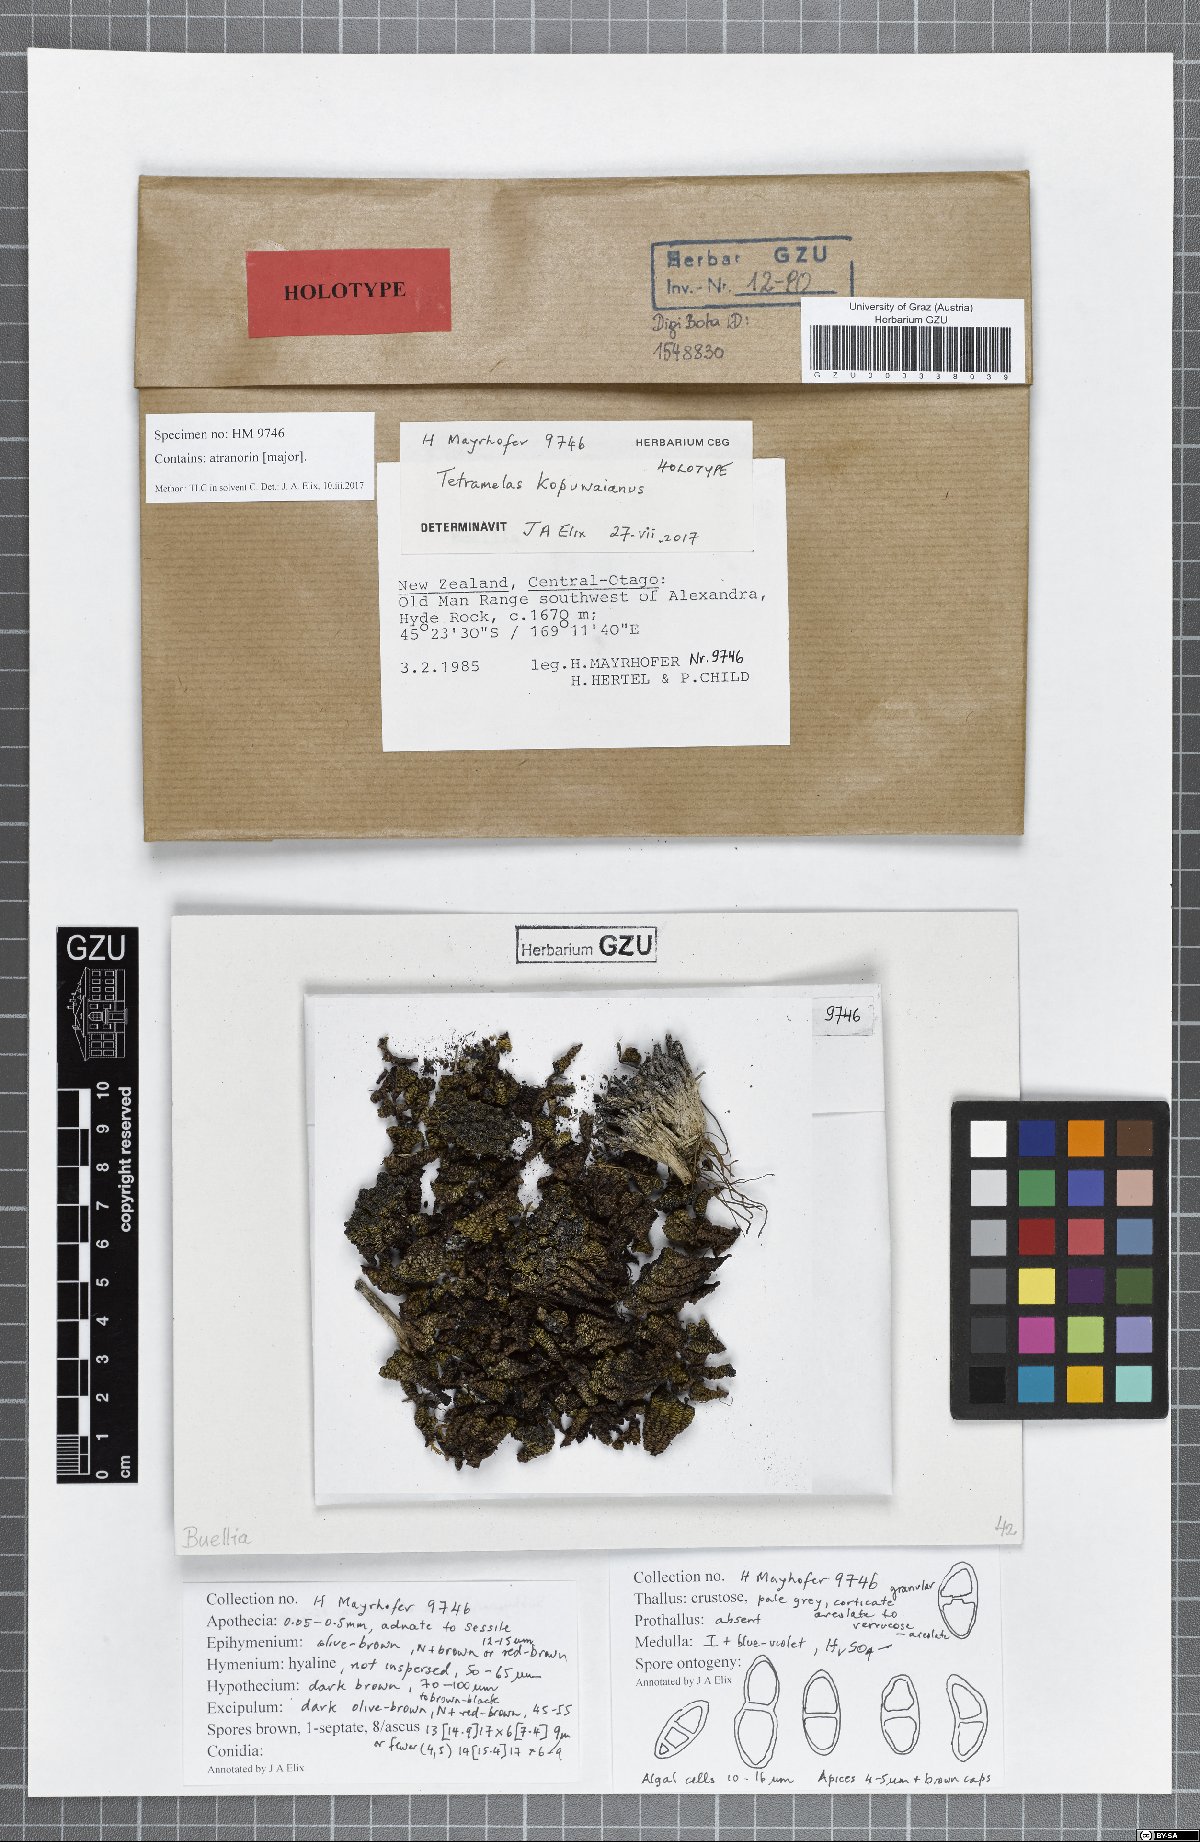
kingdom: Fungi
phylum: Ascomycota
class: Lecanoromycetes
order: Caliciales
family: Caliciaceae
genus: Tetramelas
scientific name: Tetramelas kopuwaianus
